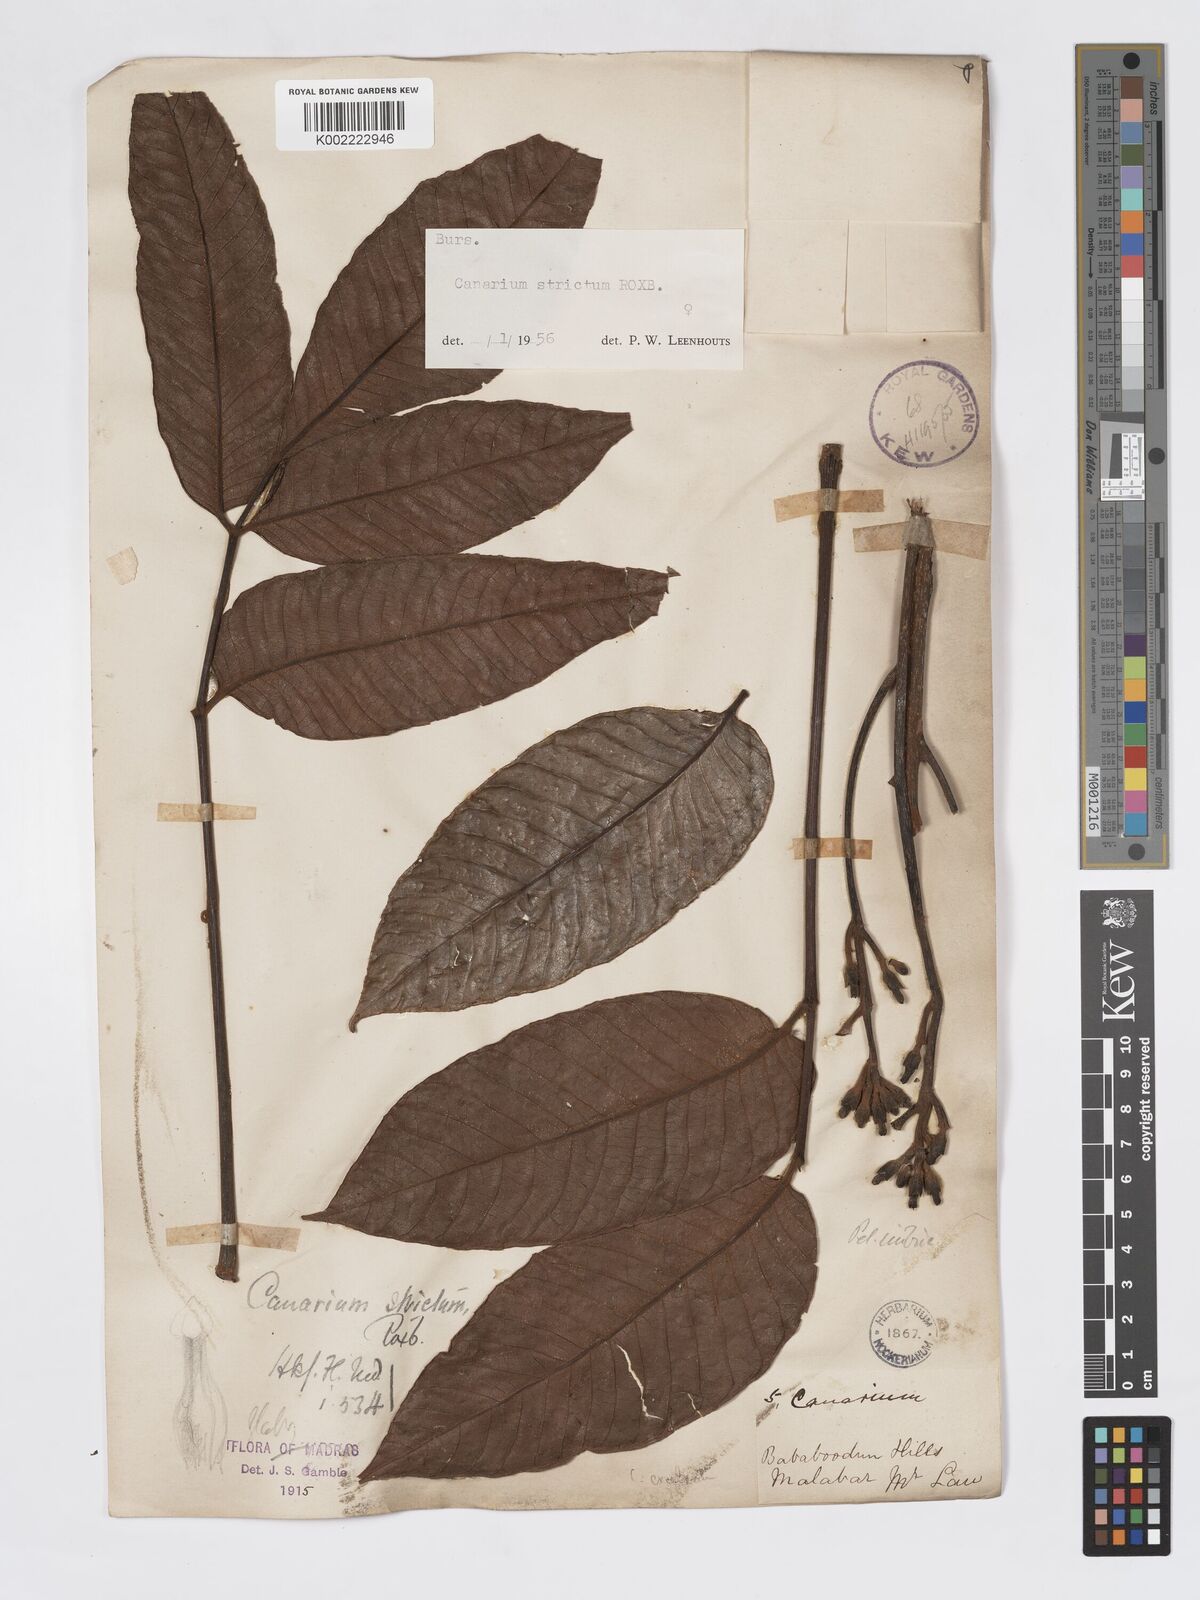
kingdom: Plantae
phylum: Tracheophyta
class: Magnoliopsida
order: Sapindales
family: Burseraceae
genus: Canarium
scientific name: Canarium strictum
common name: Indian white-mahogany
